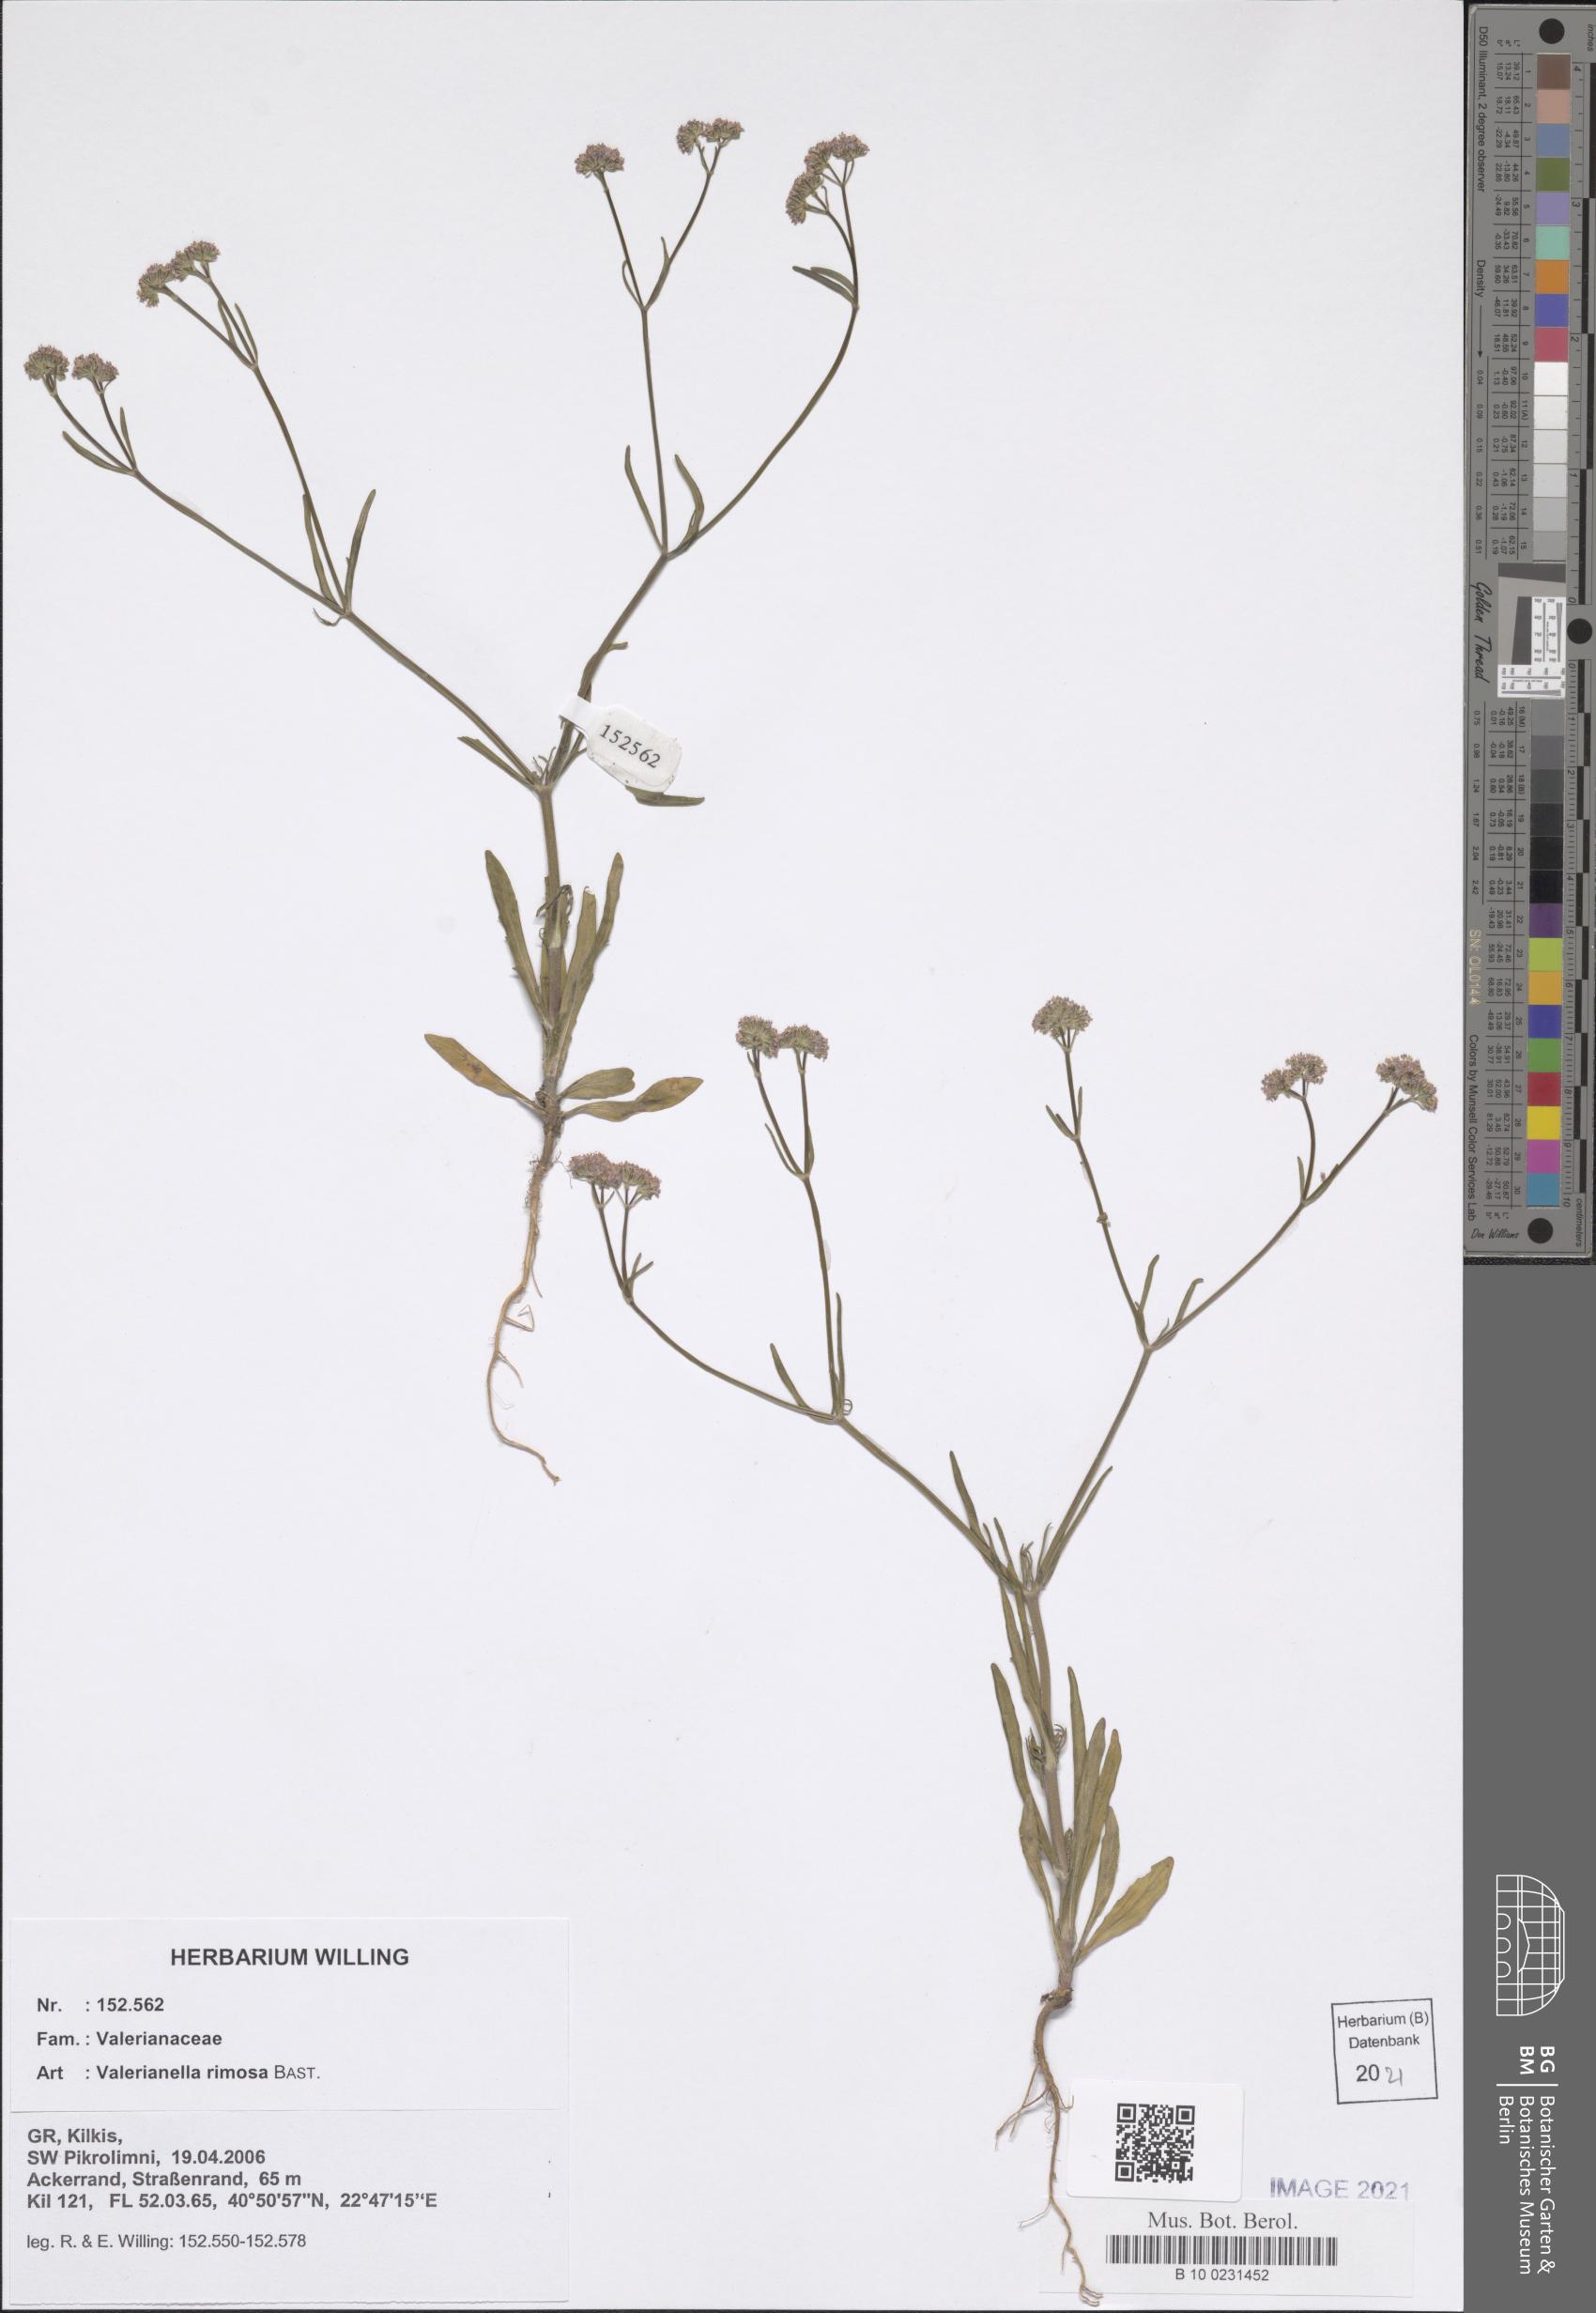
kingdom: Plantae
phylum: Tracheophyta
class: Magnoliopsida
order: Dipsacales
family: Caprifoliaceae
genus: Valerianella
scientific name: Valerianella rimosa
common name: Broad-fruited cornsalad
